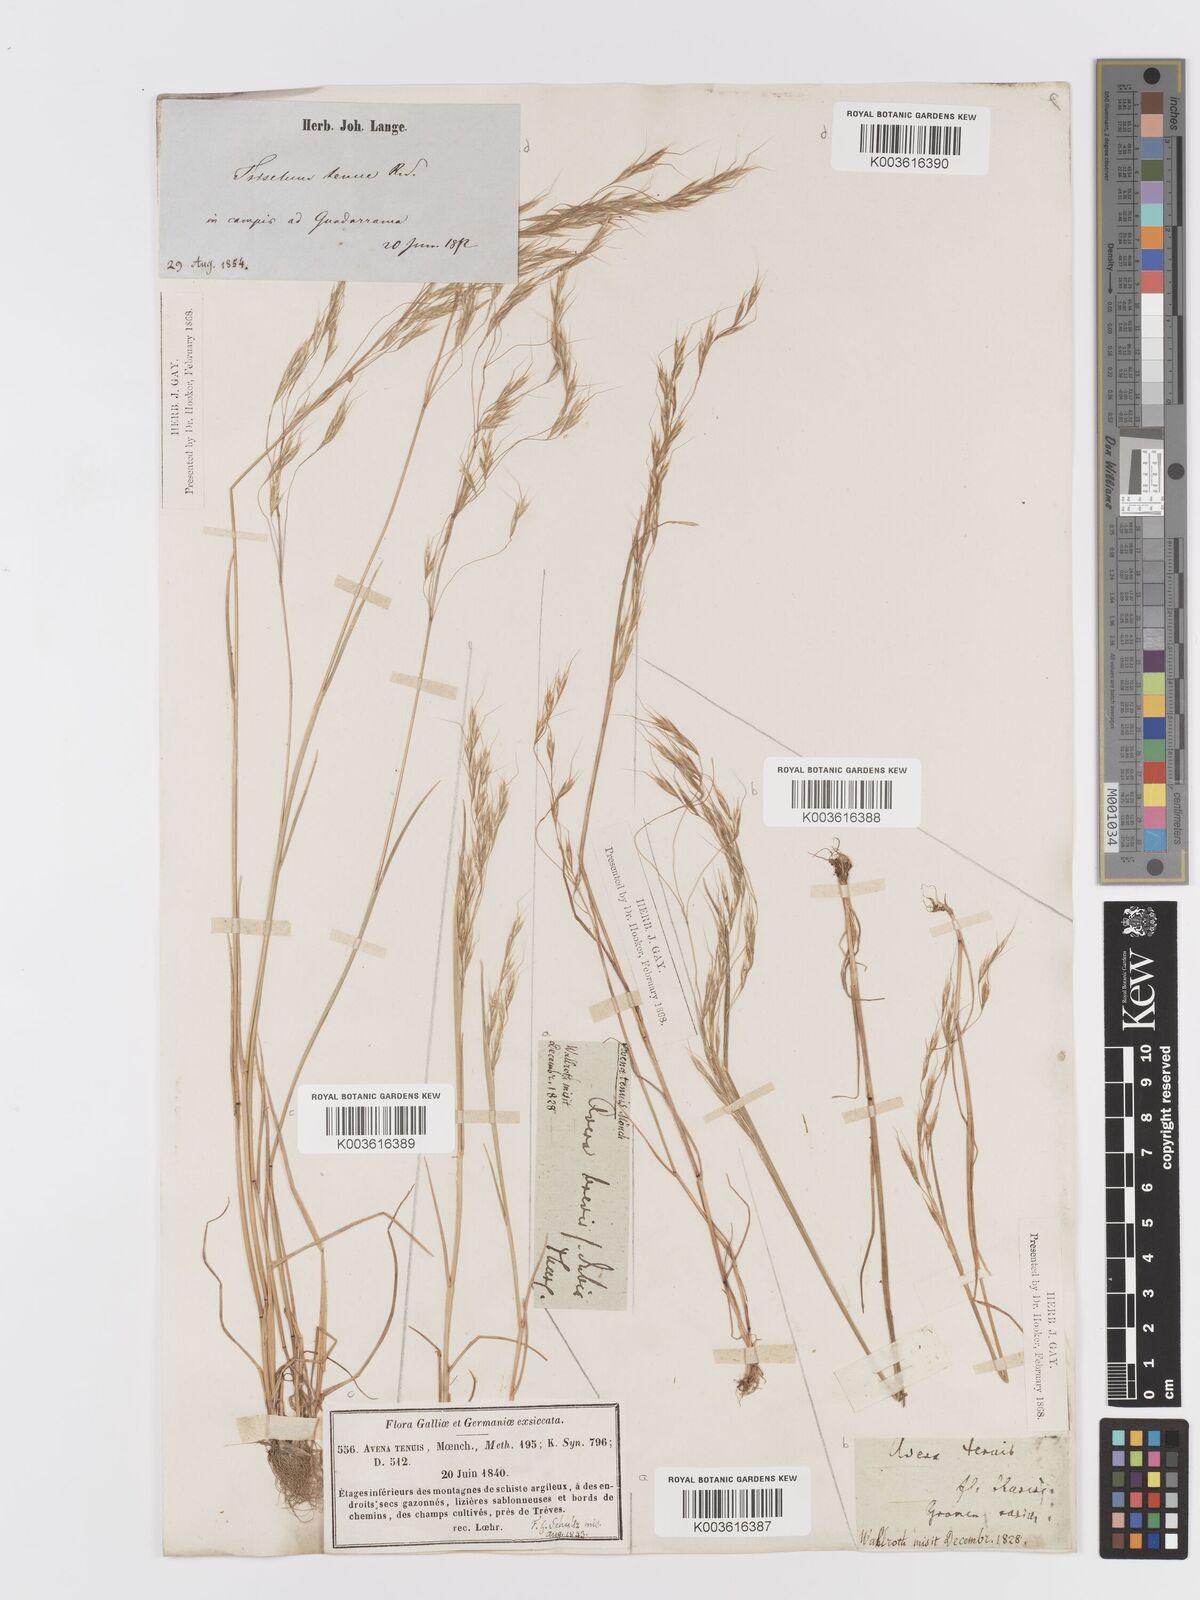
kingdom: Plantae
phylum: Tracheophyta
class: Liliopsida
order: Poales
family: Poaceae
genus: Ventenata
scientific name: Ventenata dubia
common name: North africa grass
